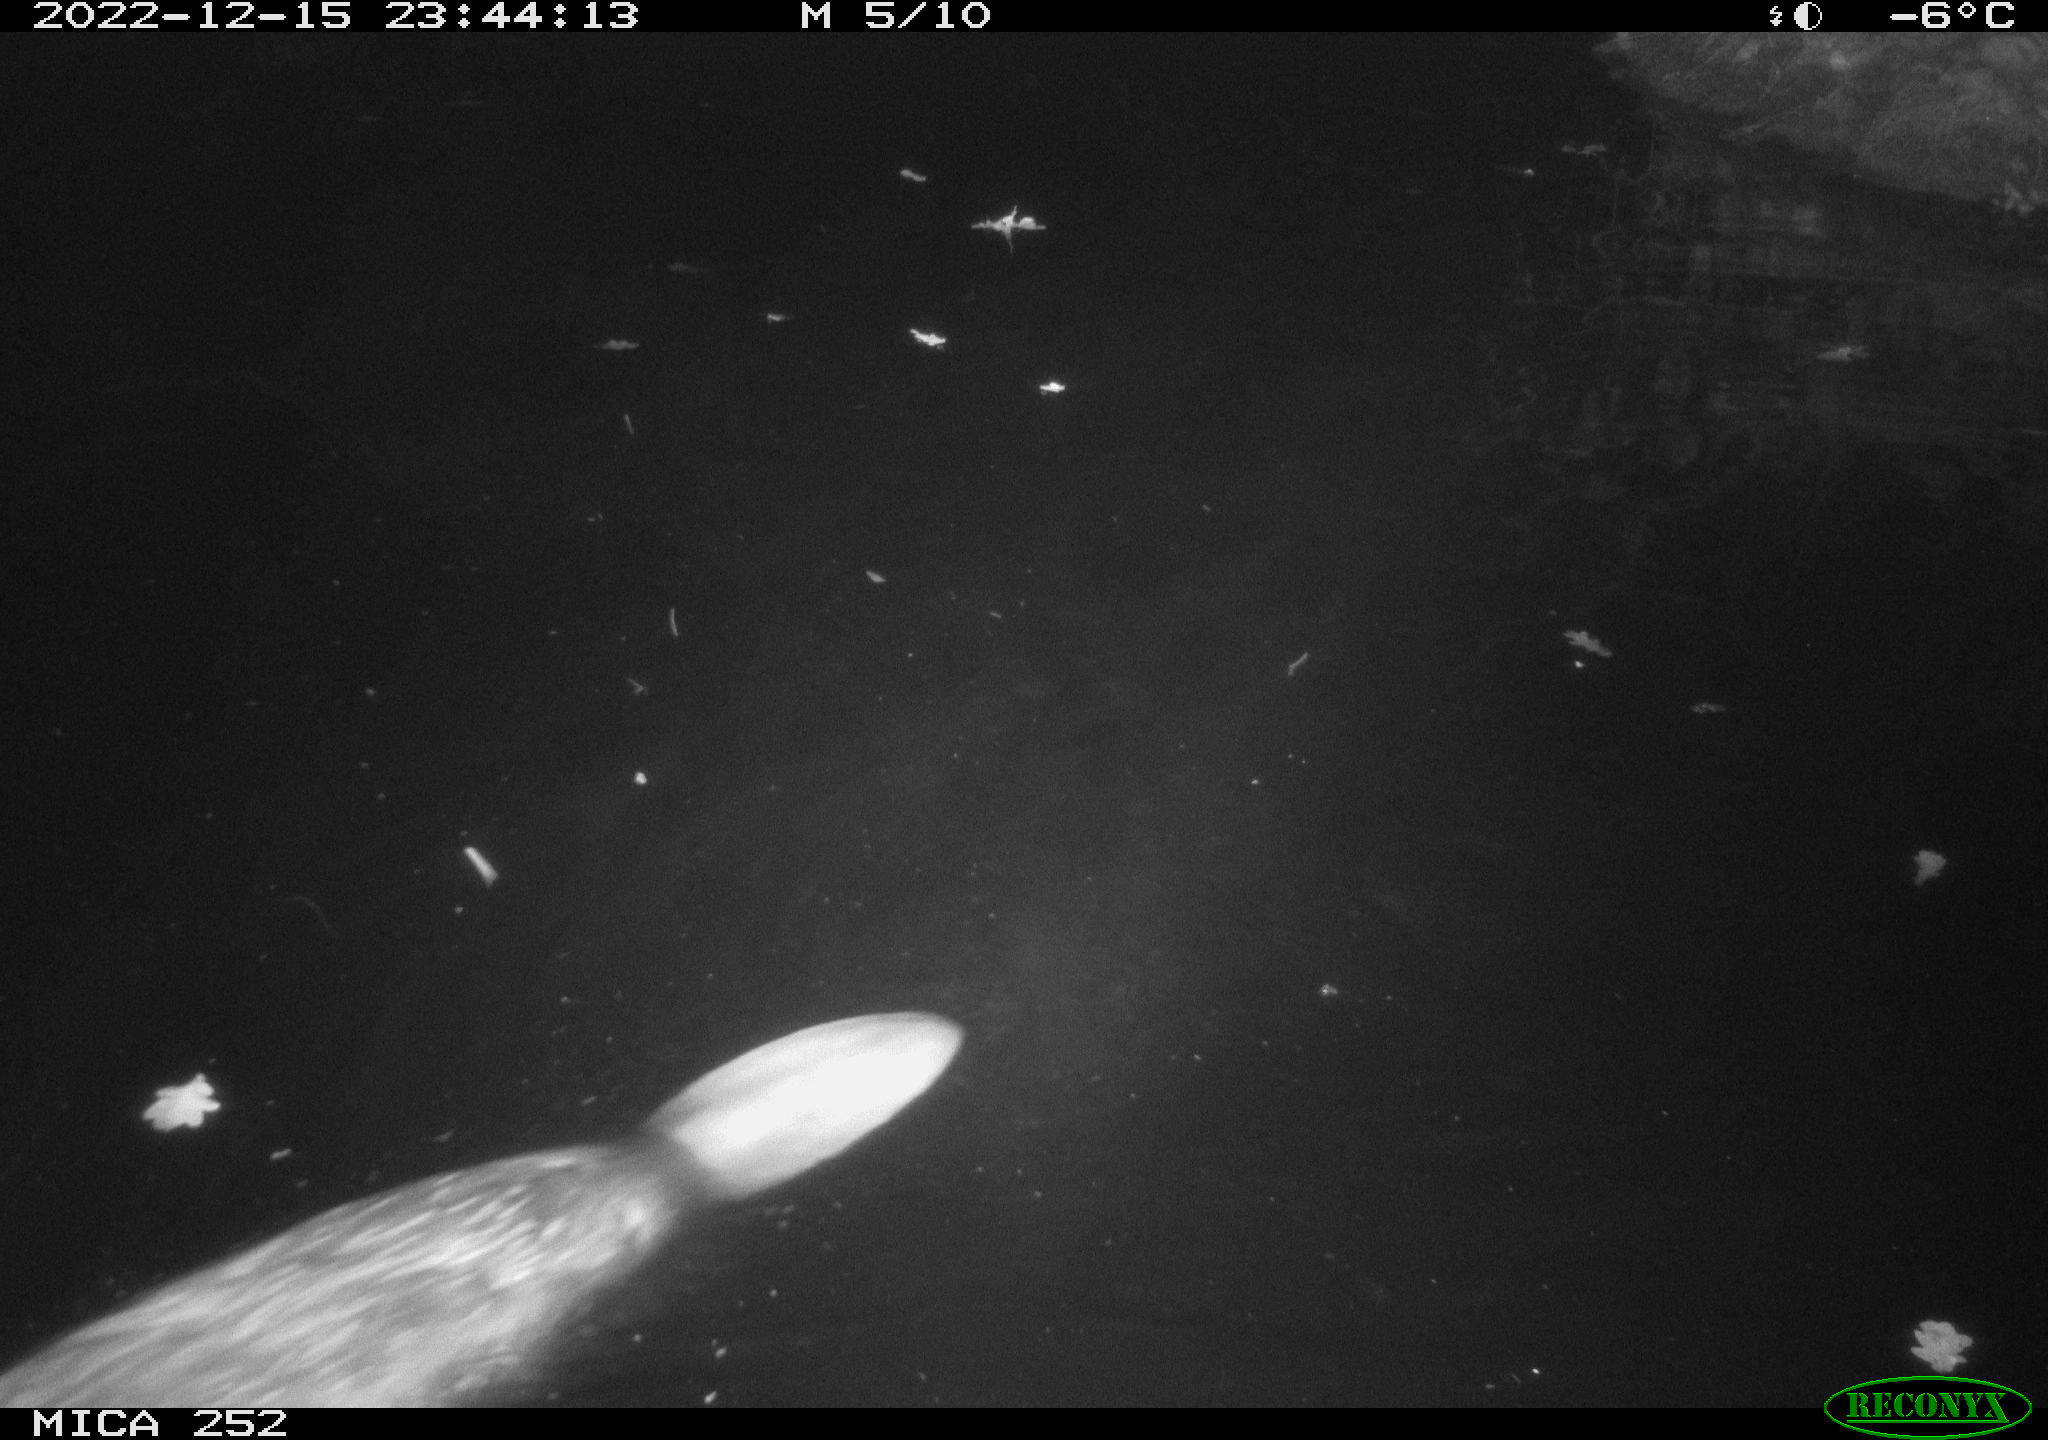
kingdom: Animalia
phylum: Chordata
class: Mammalia
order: Rodentia
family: Castoridae
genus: Castor
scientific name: Castor fiber
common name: Eurasian beaver
